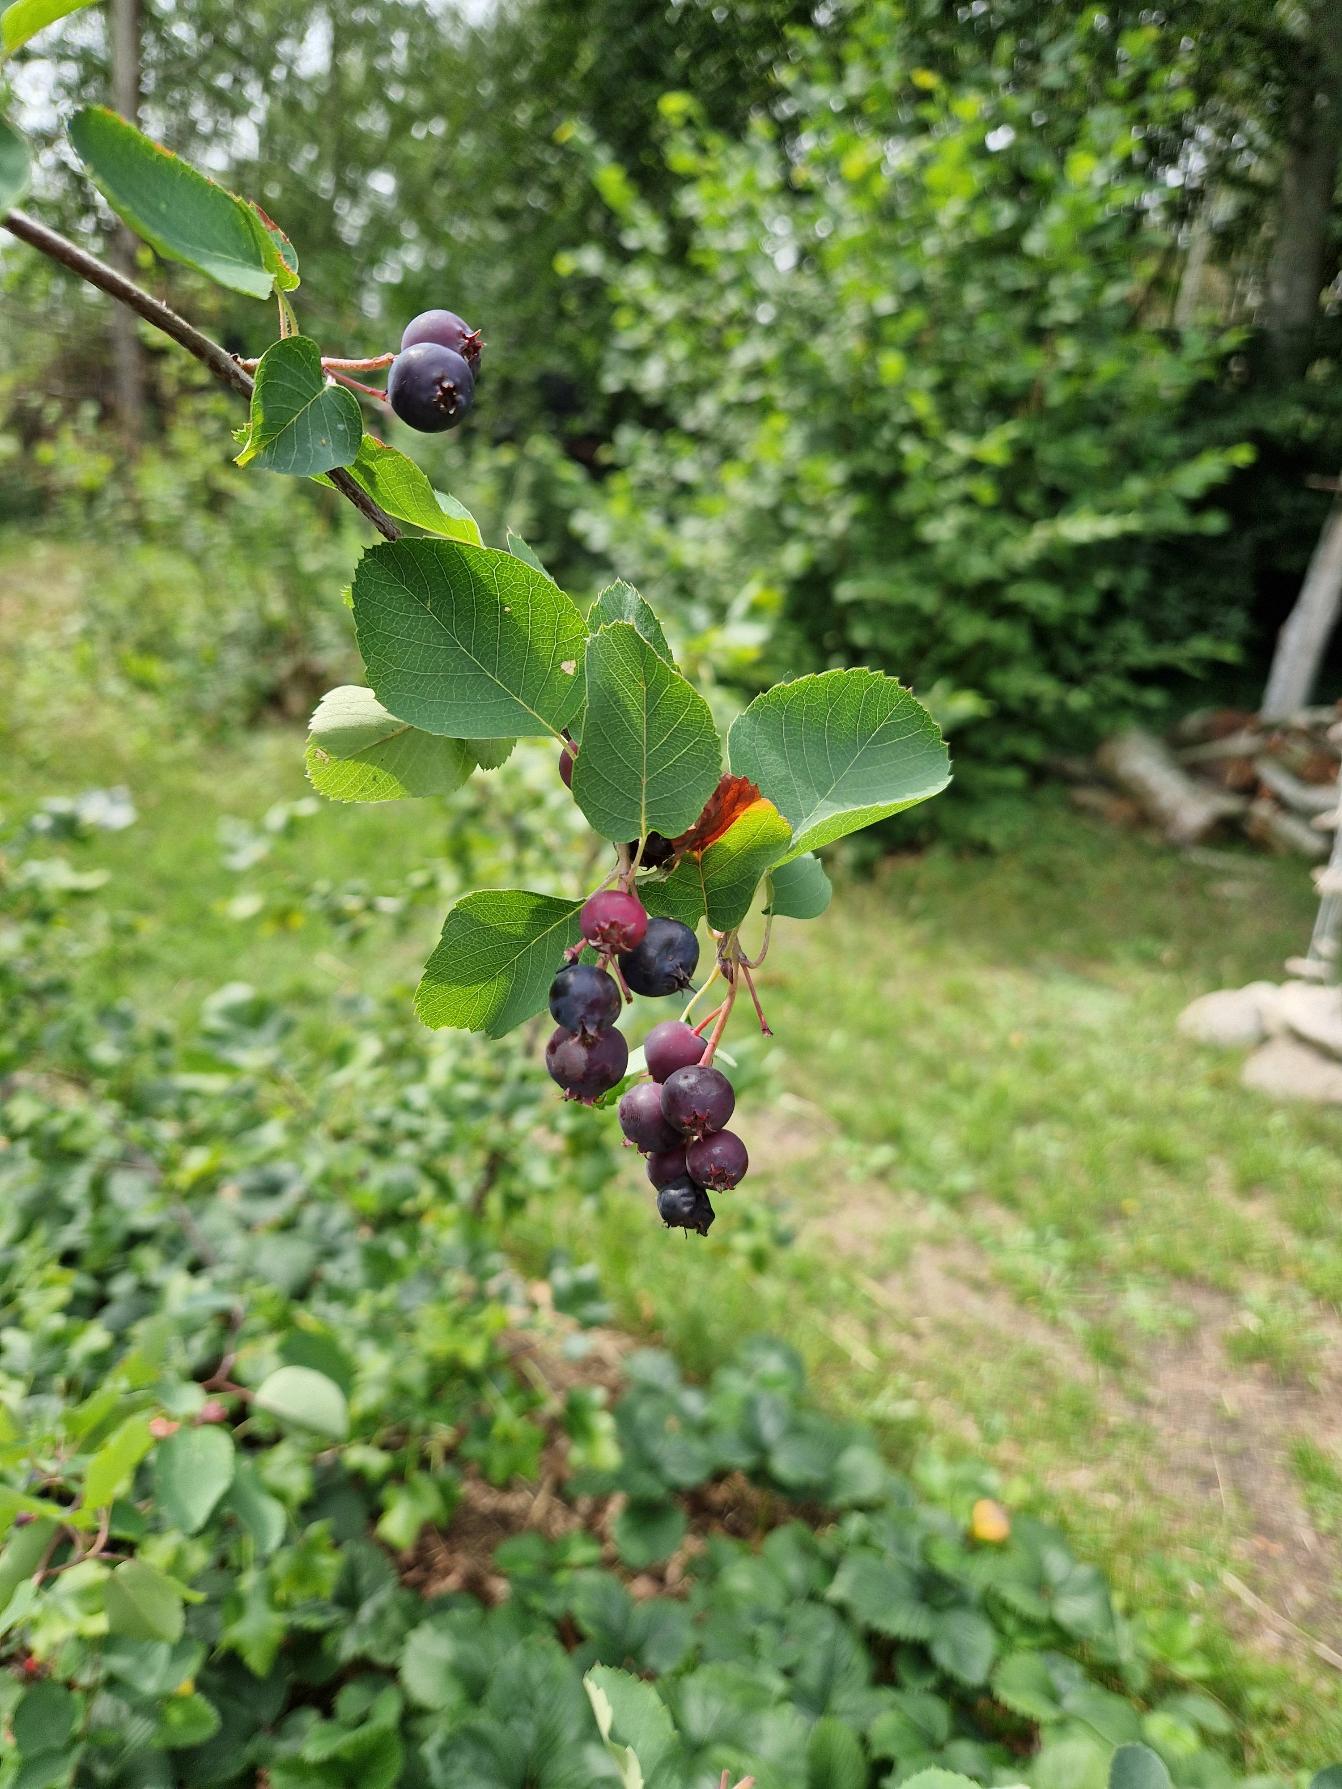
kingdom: Plantae
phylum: Tracheophyta
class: Magnoliopsida
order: Rosales
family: Rosaceae
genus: Amelanchier
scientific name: Amelanchier alnifolia
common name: Ellebladet bærmispel
